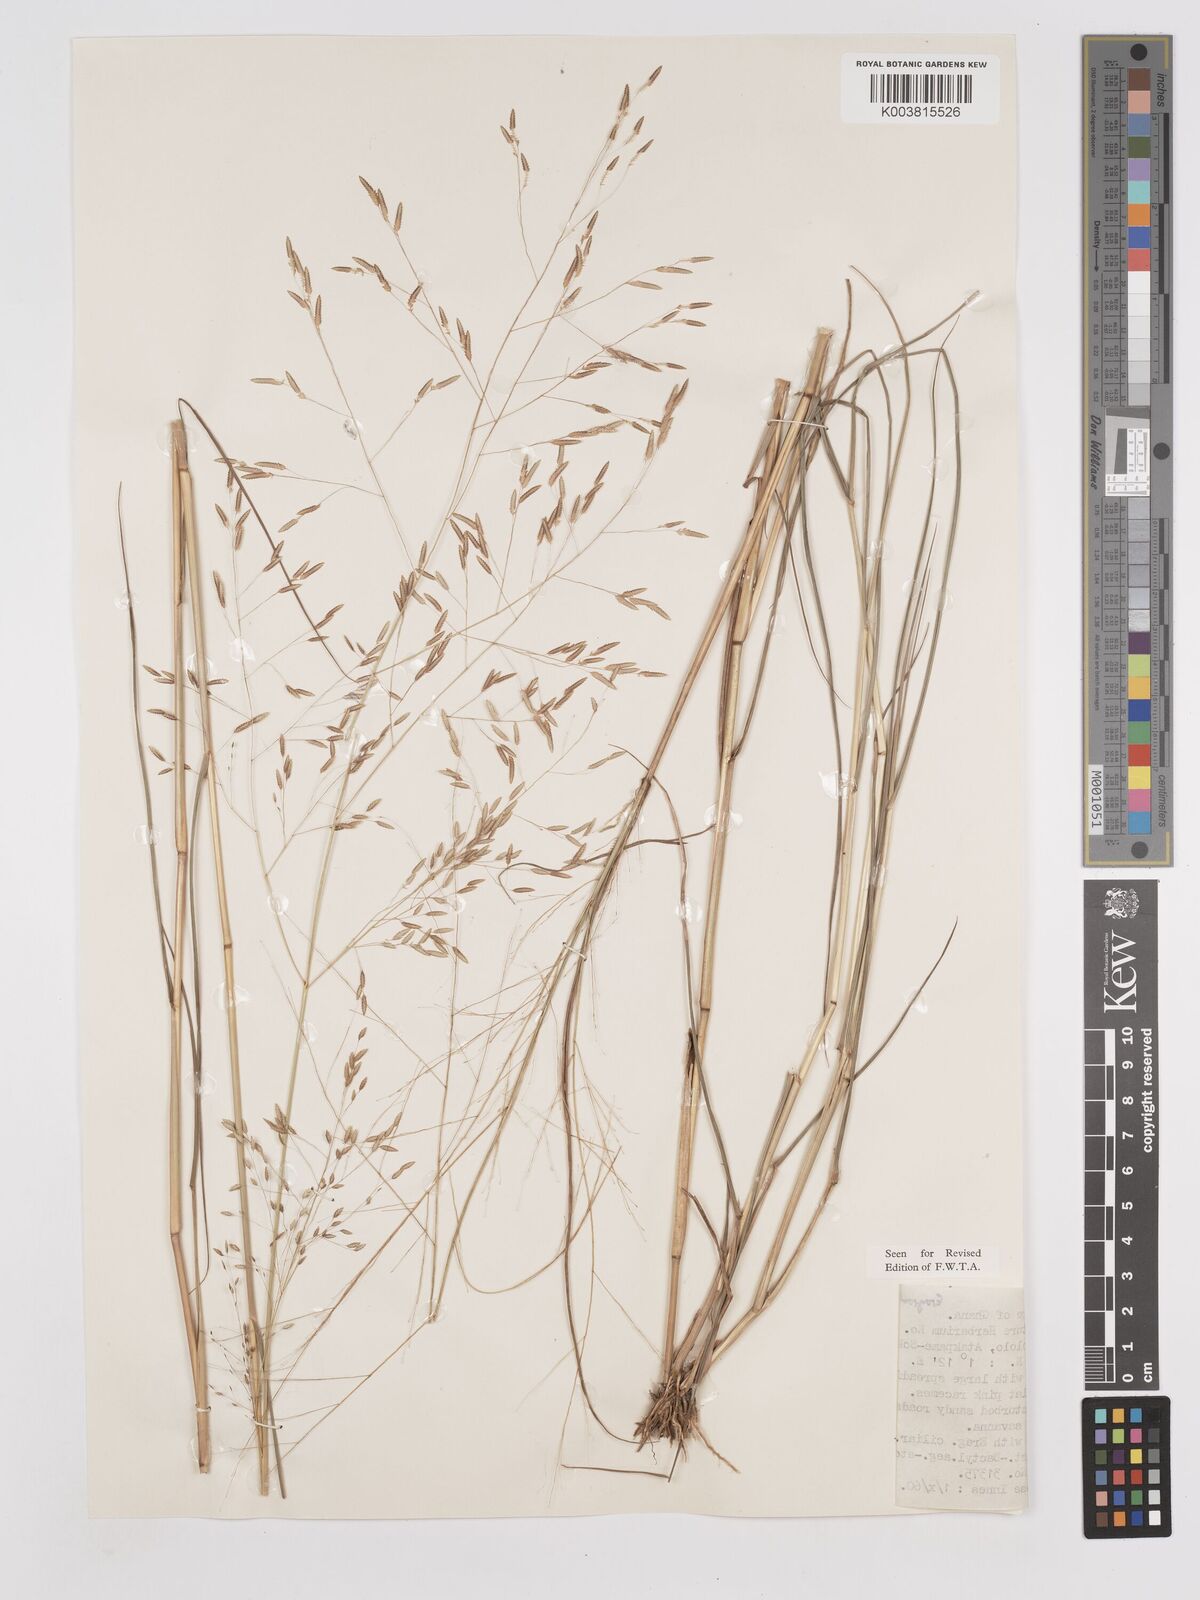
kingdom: Plantae
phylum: Tracheophyta
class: Liliopsida
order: Poales
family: Poaceae
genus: Eragrostis
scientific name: Eragrostis tremula
